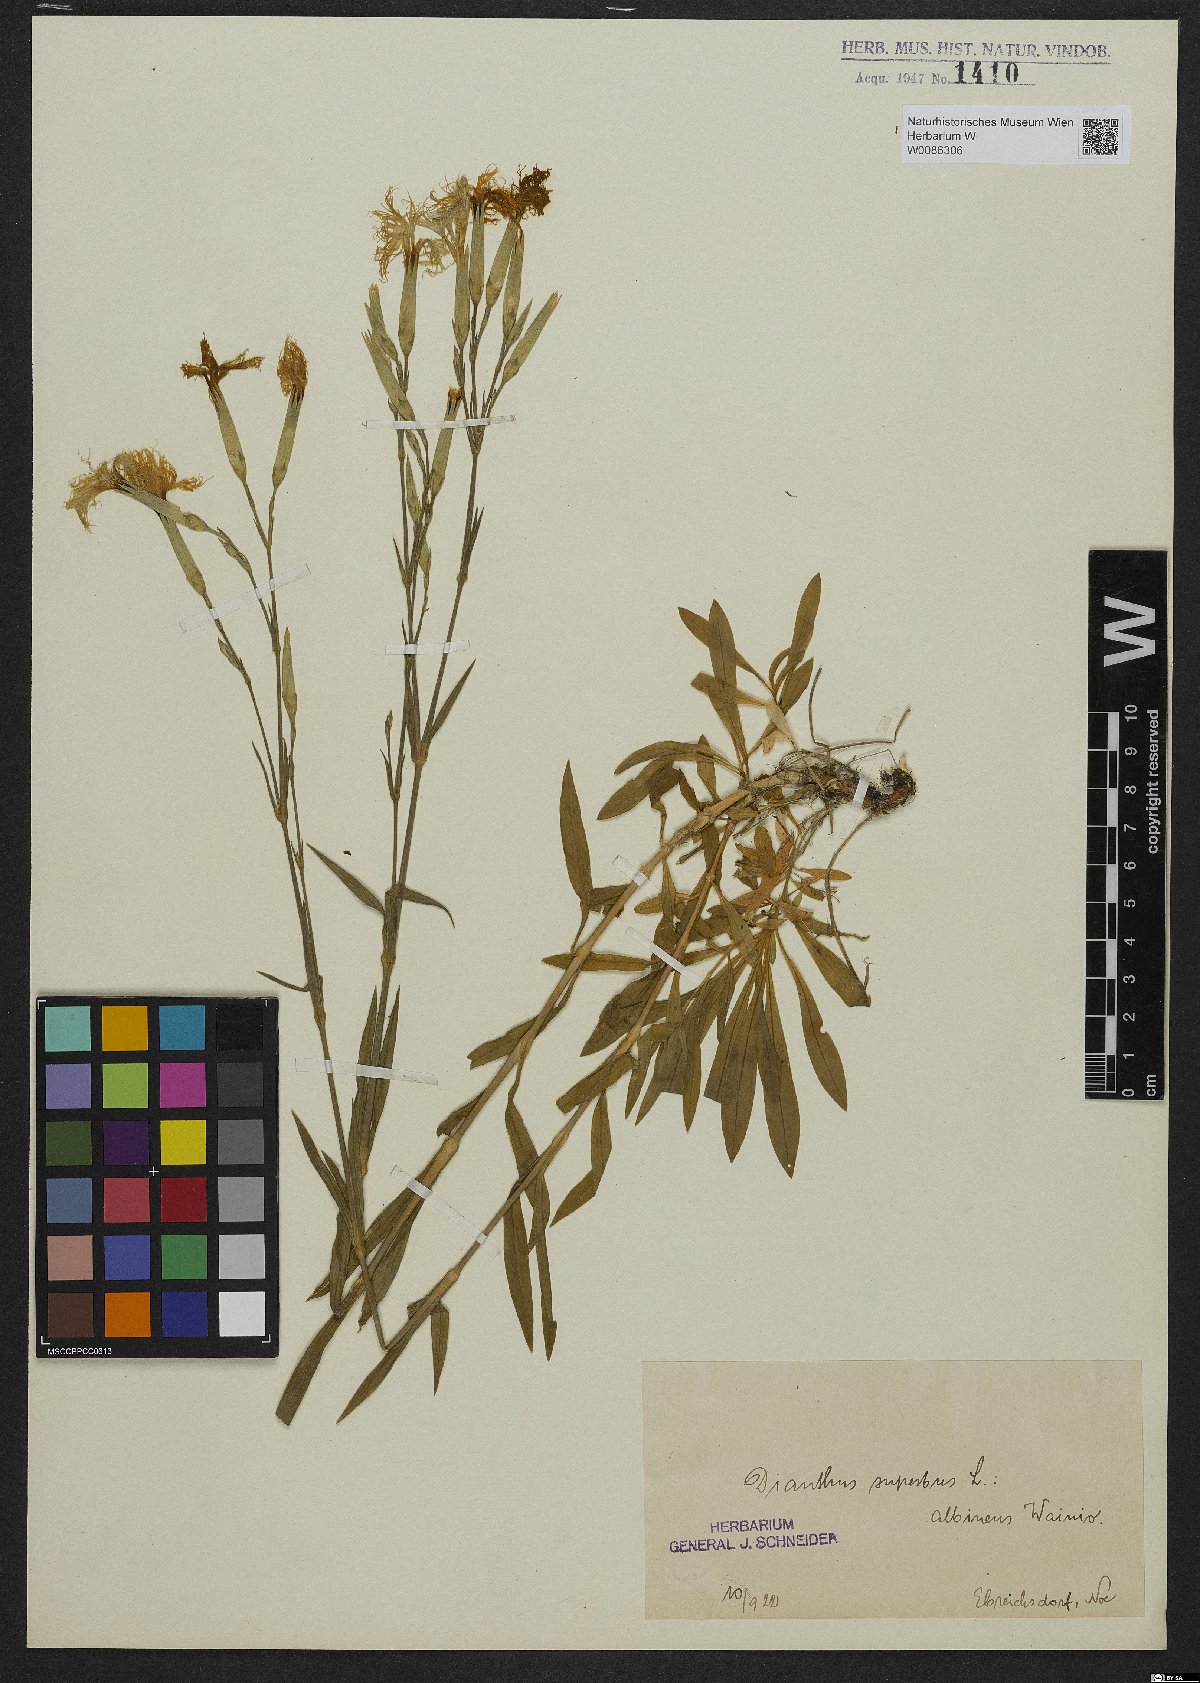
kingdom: Plantae
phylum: Tracheophyta
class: Magnoliopsida
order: Caryophyllales
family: Caryophyllaceae
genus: Dianthus
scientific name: Dianthus superbus
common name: Fringed pink
